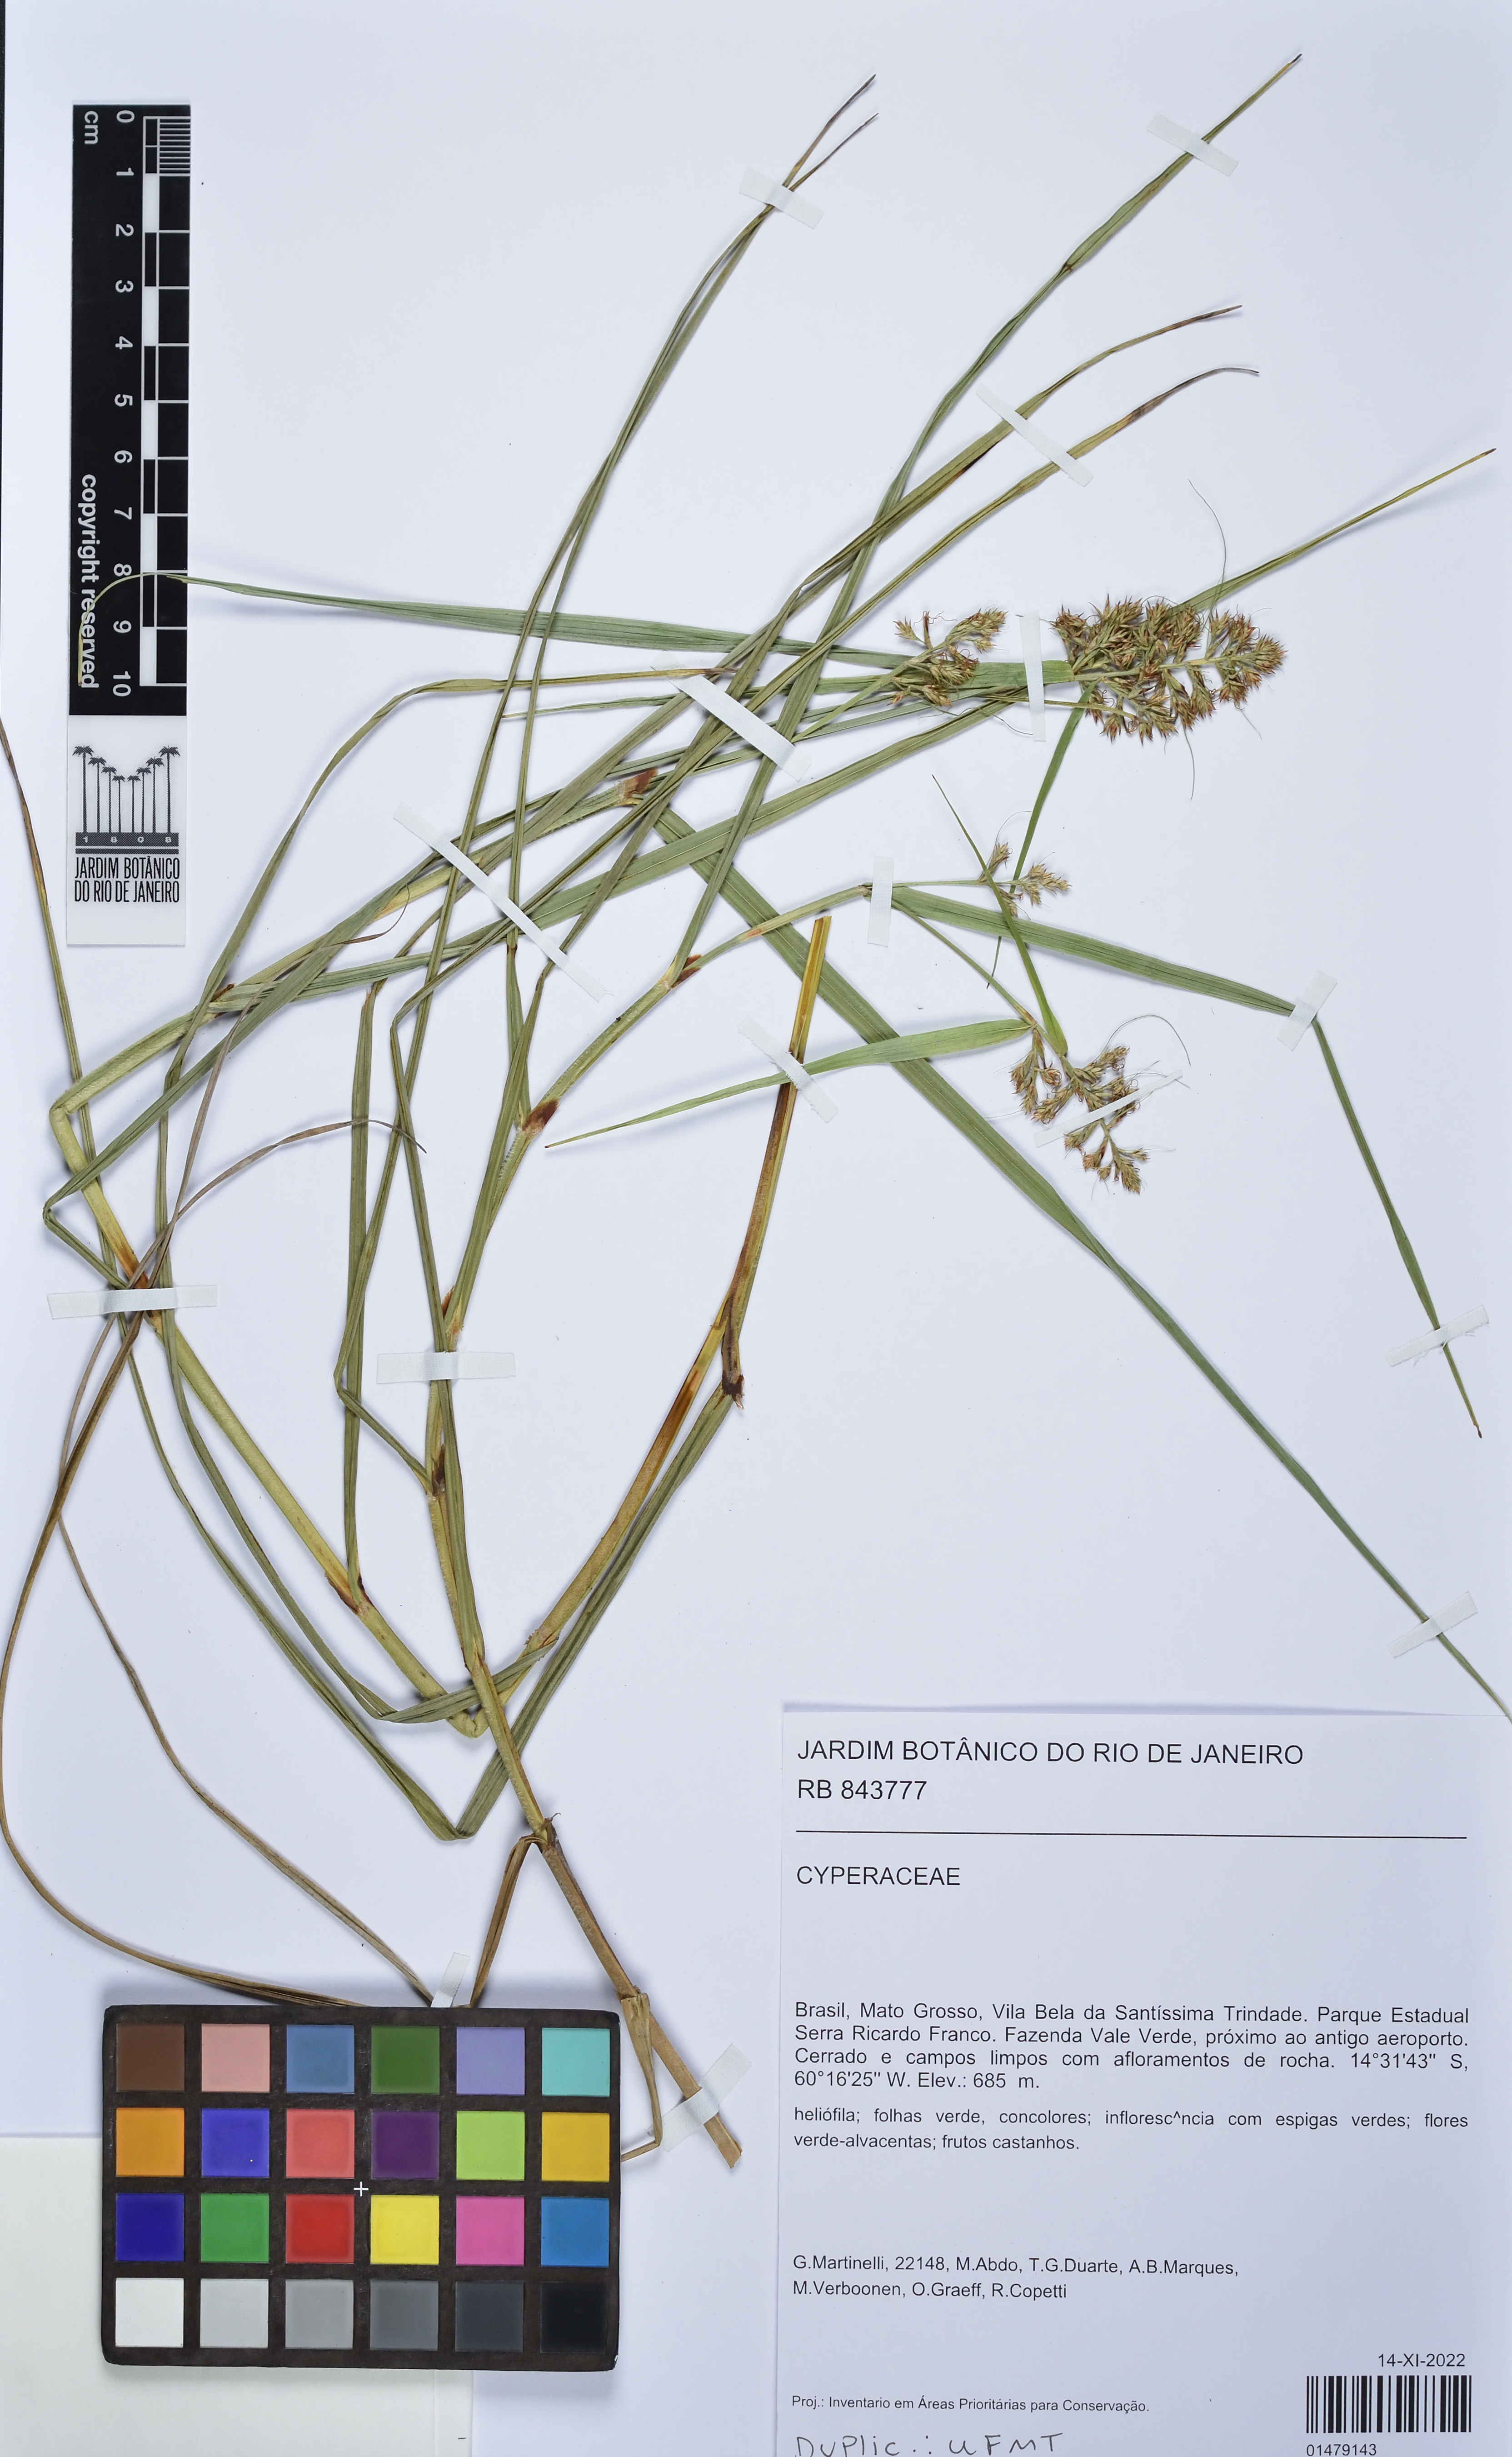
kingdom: Plantae
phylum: Tracheophyta
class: Liliopsida
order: Poales
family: Cyperaceae
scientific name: Cyperaceae
